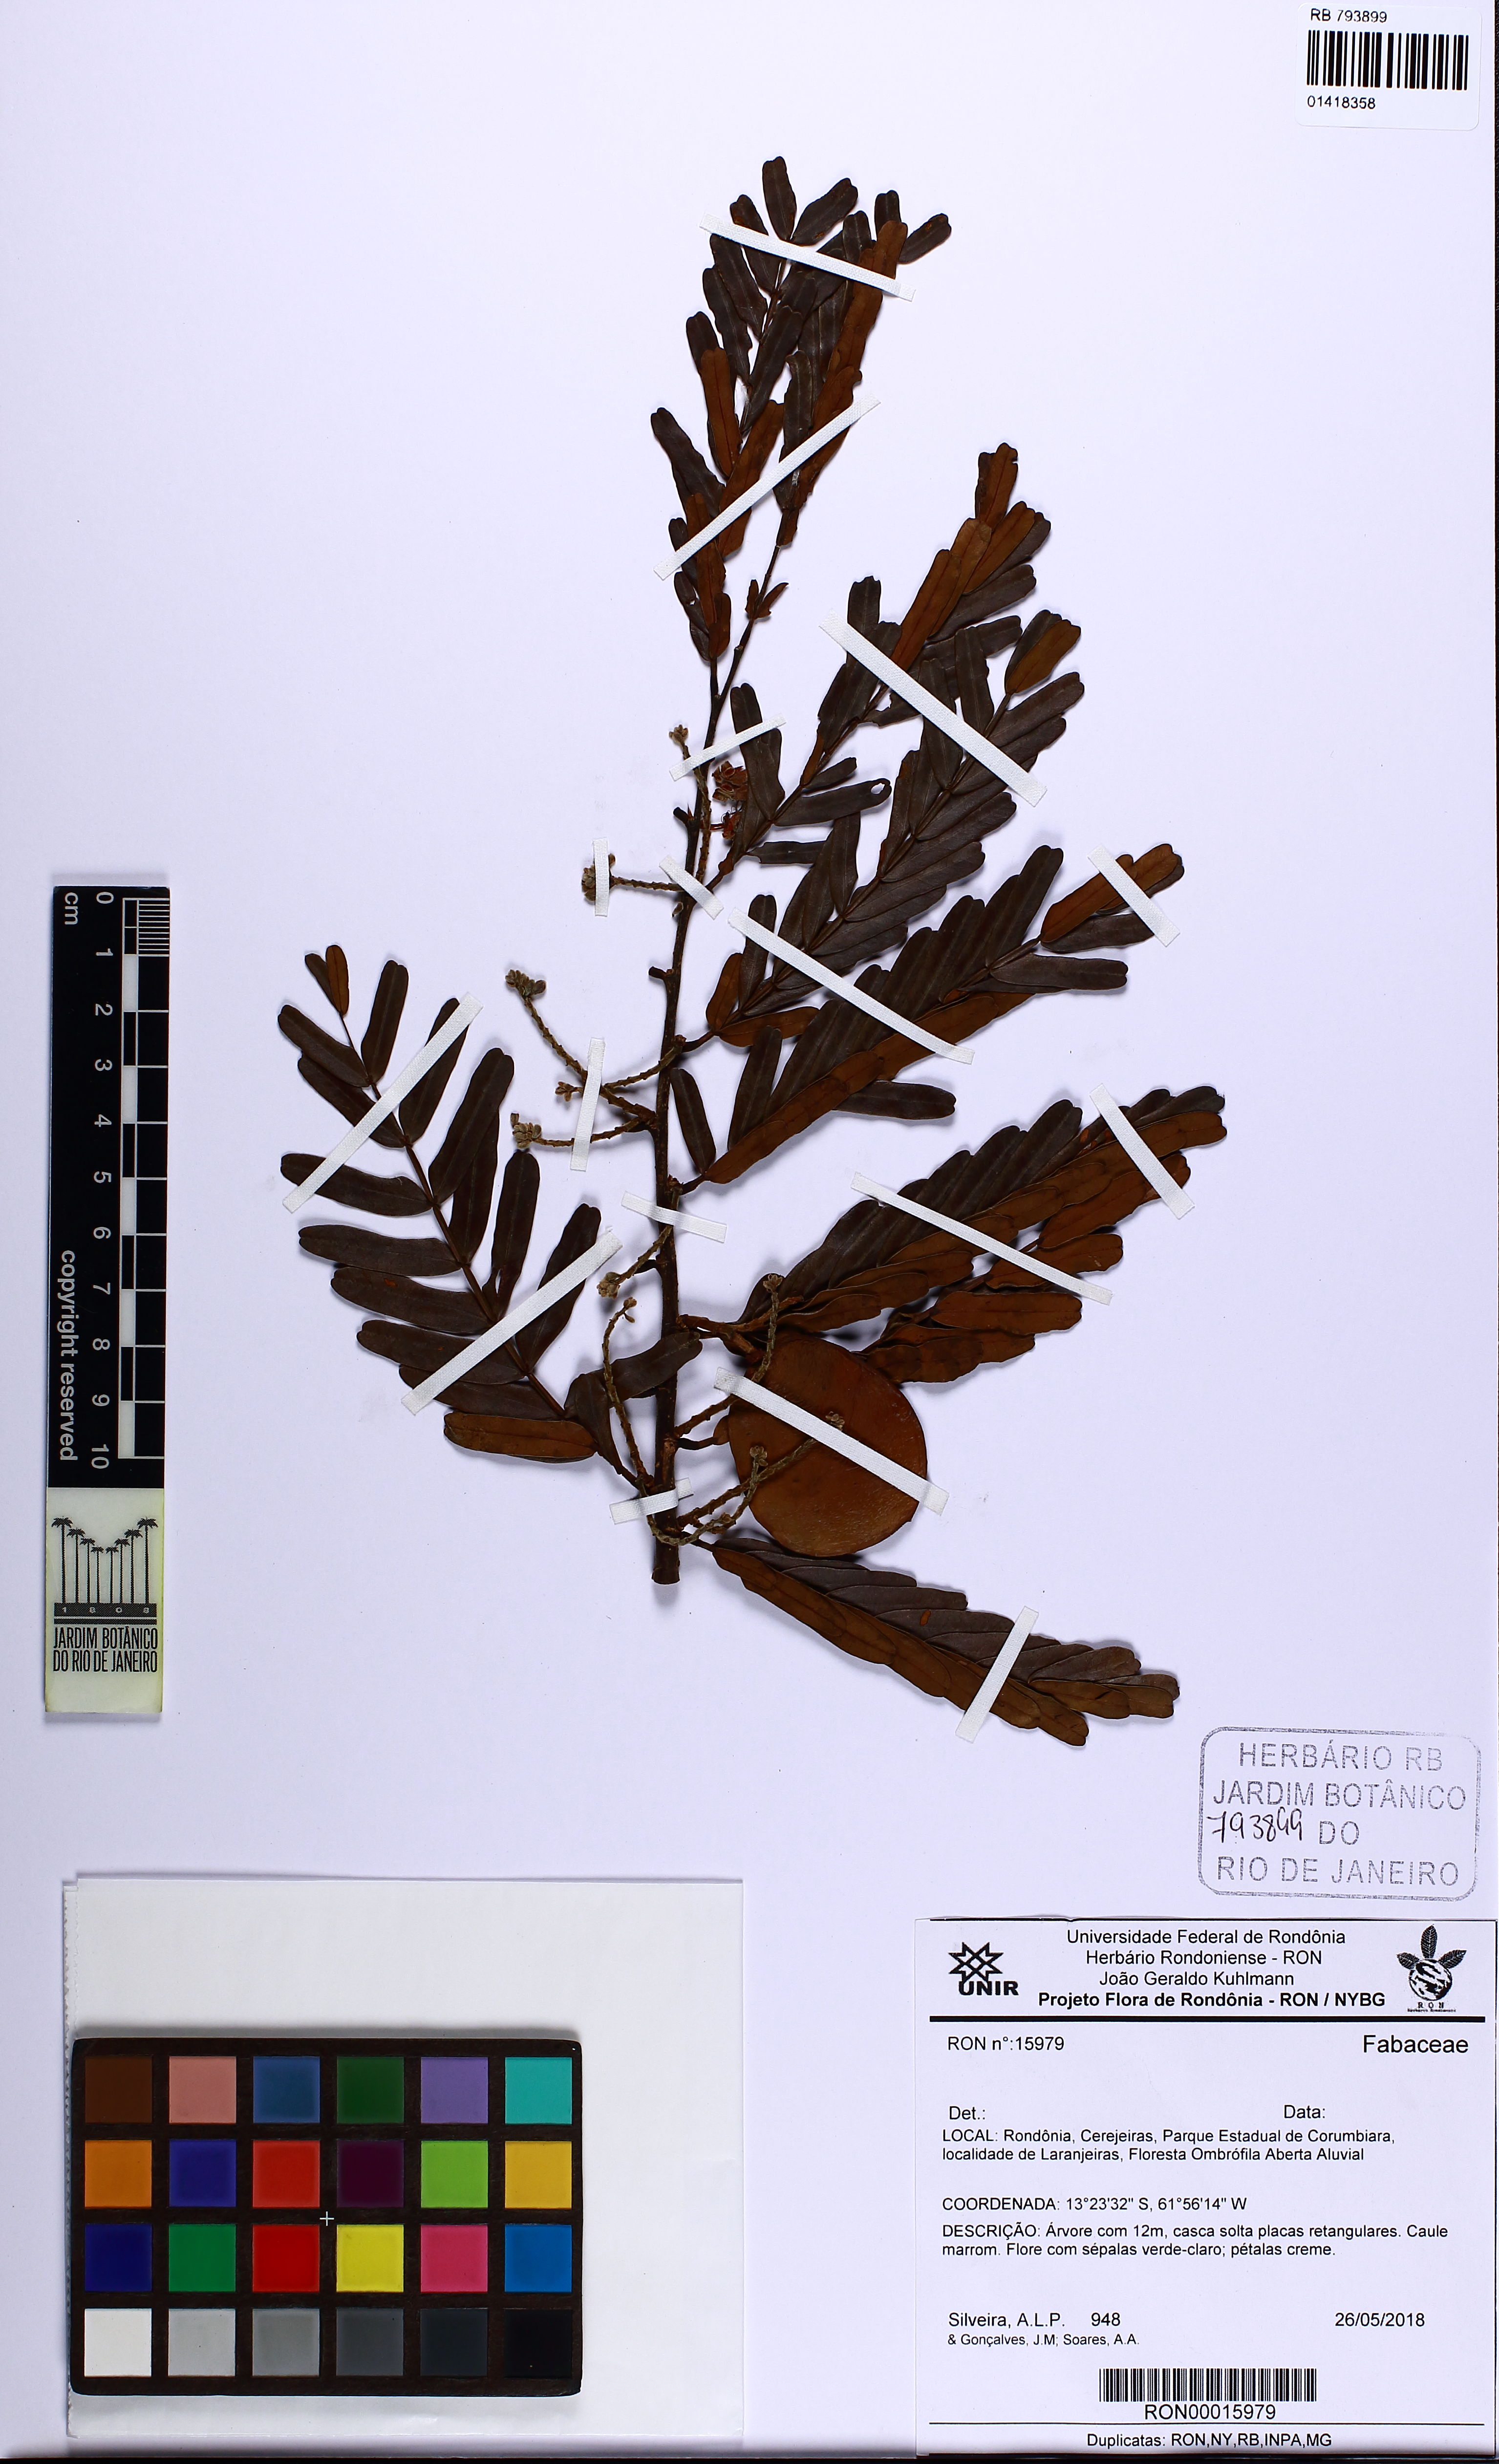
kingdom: Plantae
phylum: Tracheophyta
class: Magnoliopsida
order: Fabales
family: Fabaceae
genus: Macrolobium
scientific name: Macrolobium acaciifolium
